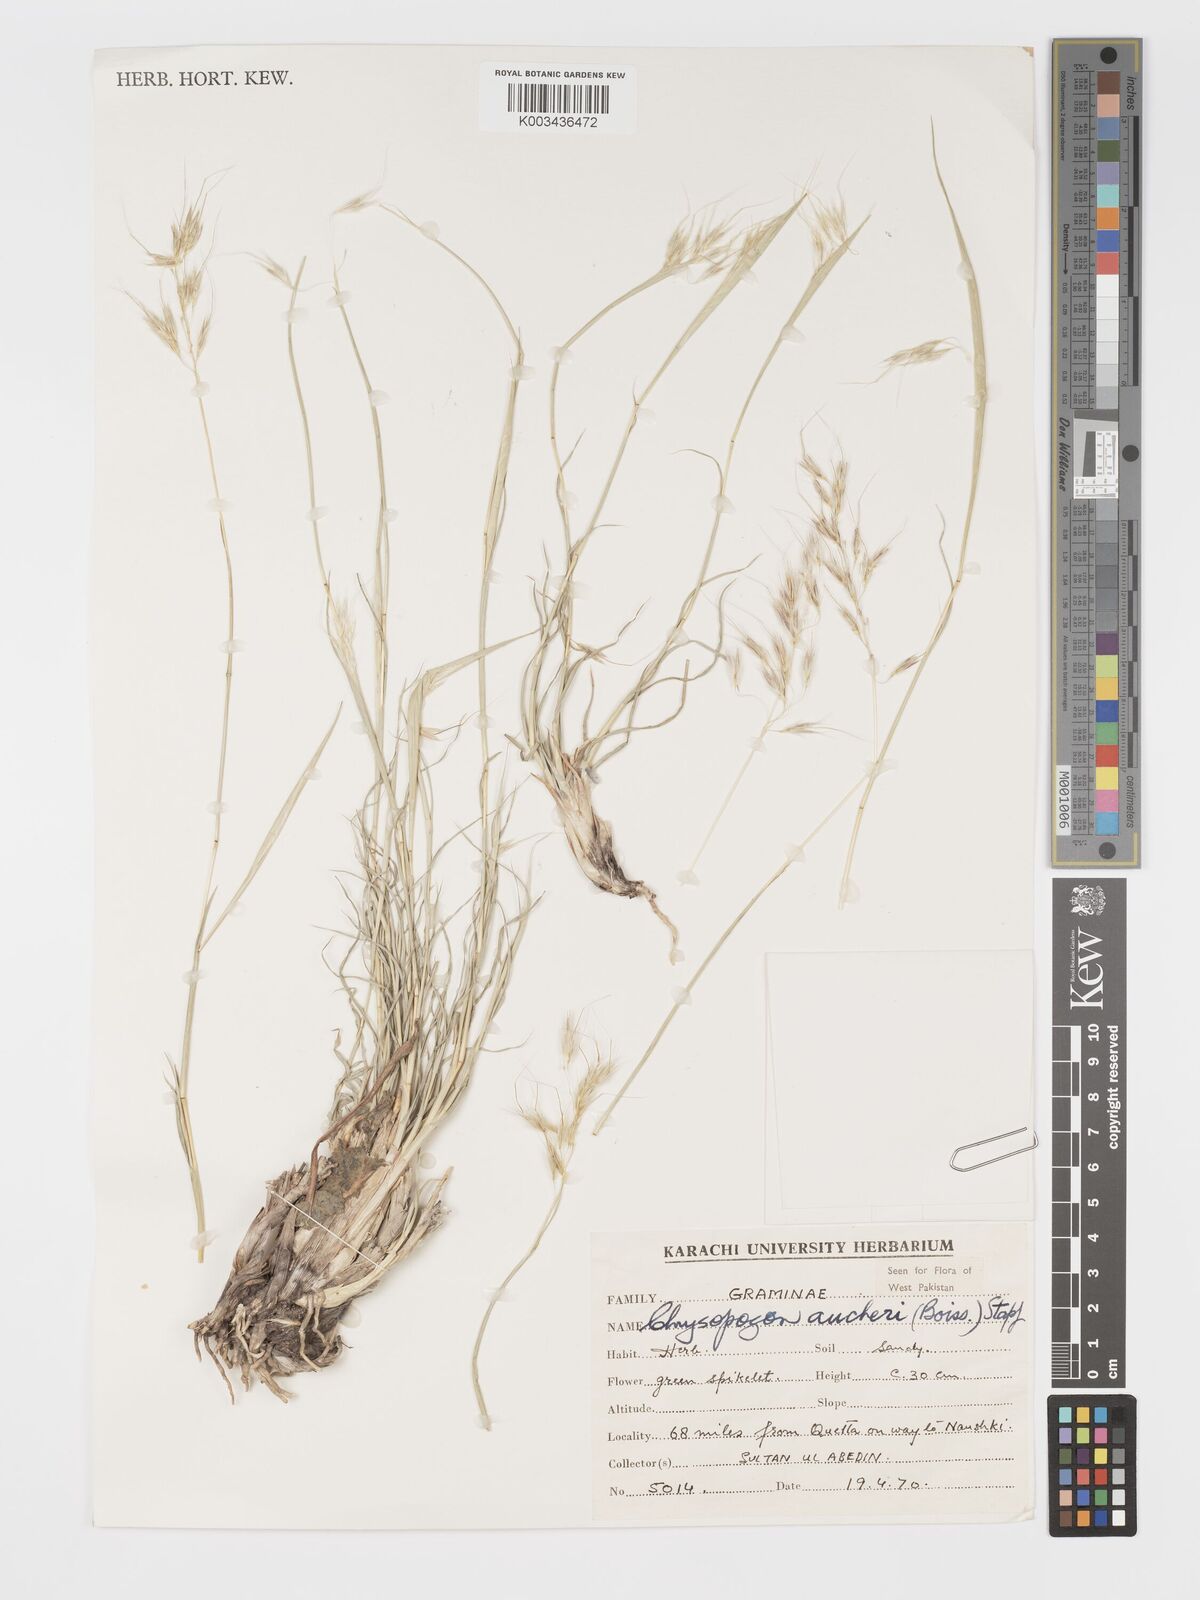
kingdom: Plantae
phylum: Tracheophyta
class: Liliopsida
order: Poales
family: Poaceae
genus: Chrysopogon
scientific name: Chrysopogon aucheri
